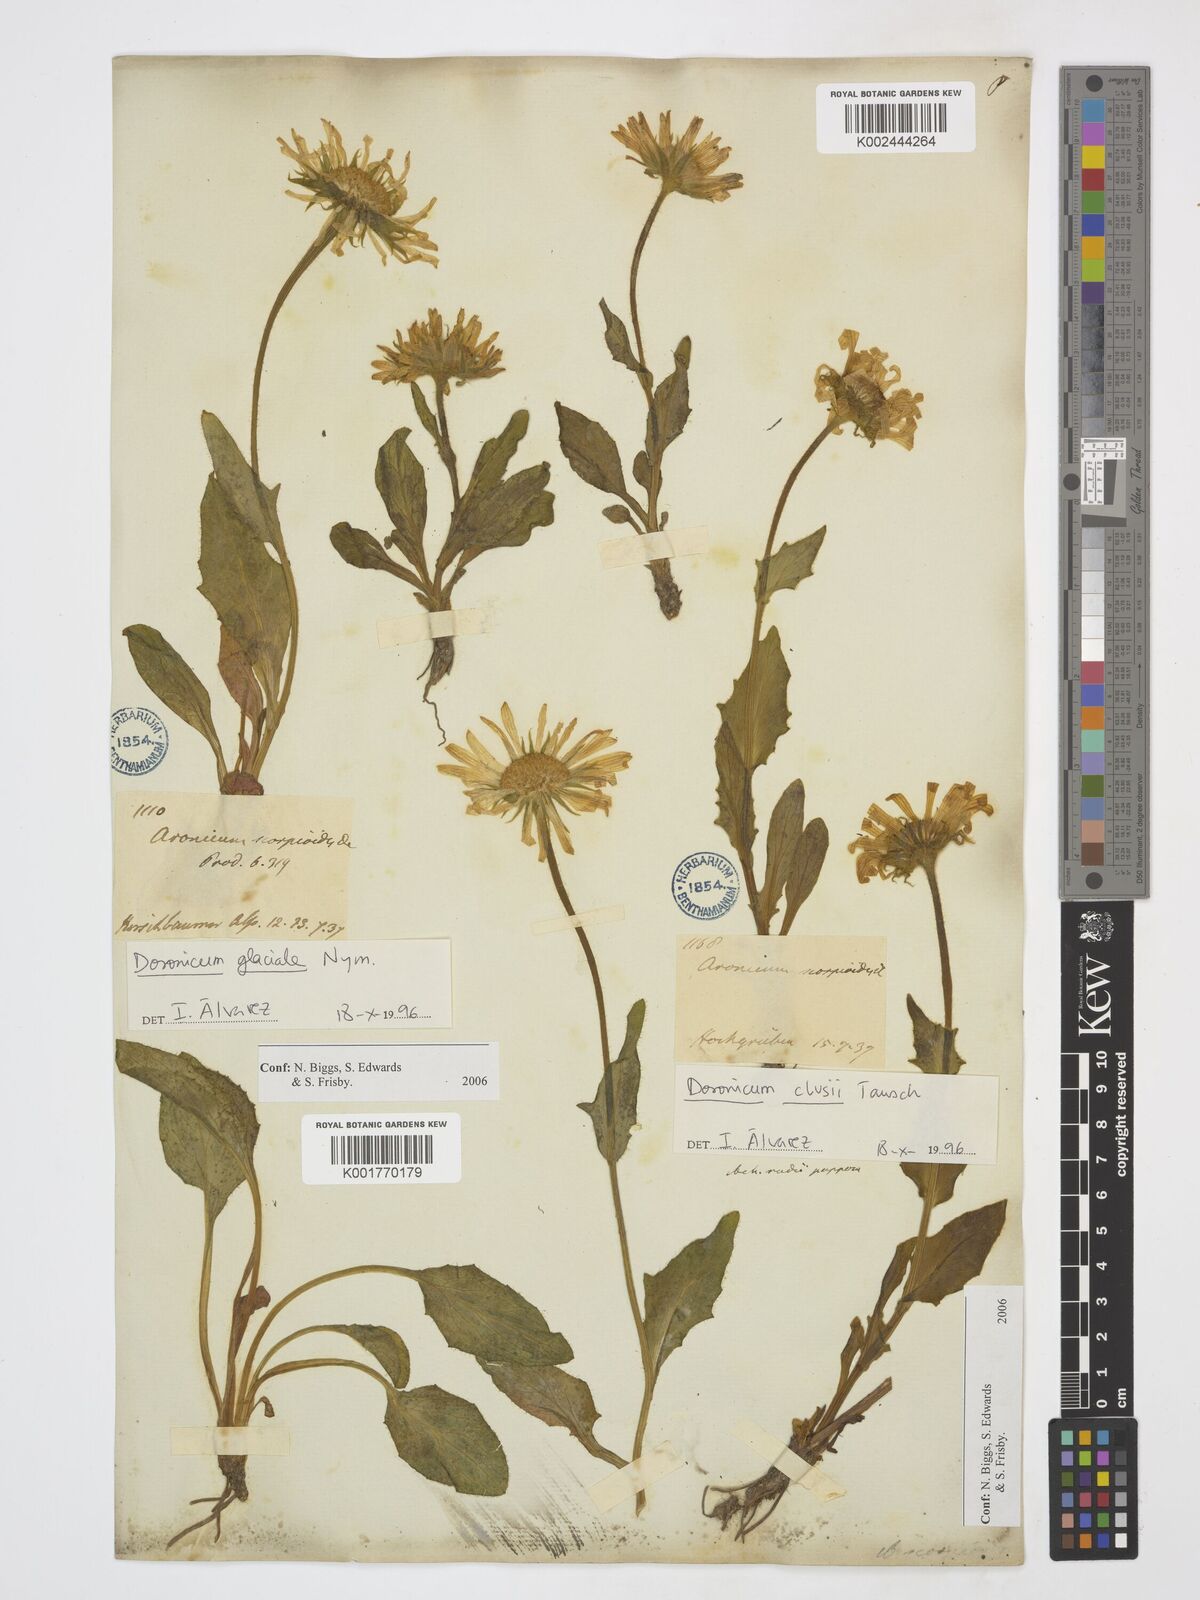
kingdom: Plantae
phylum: Tracheophyta
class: Magnoliopsida
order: Asterales
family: Asteraceae
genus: Doronicum
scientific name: Doronicum glaciale
